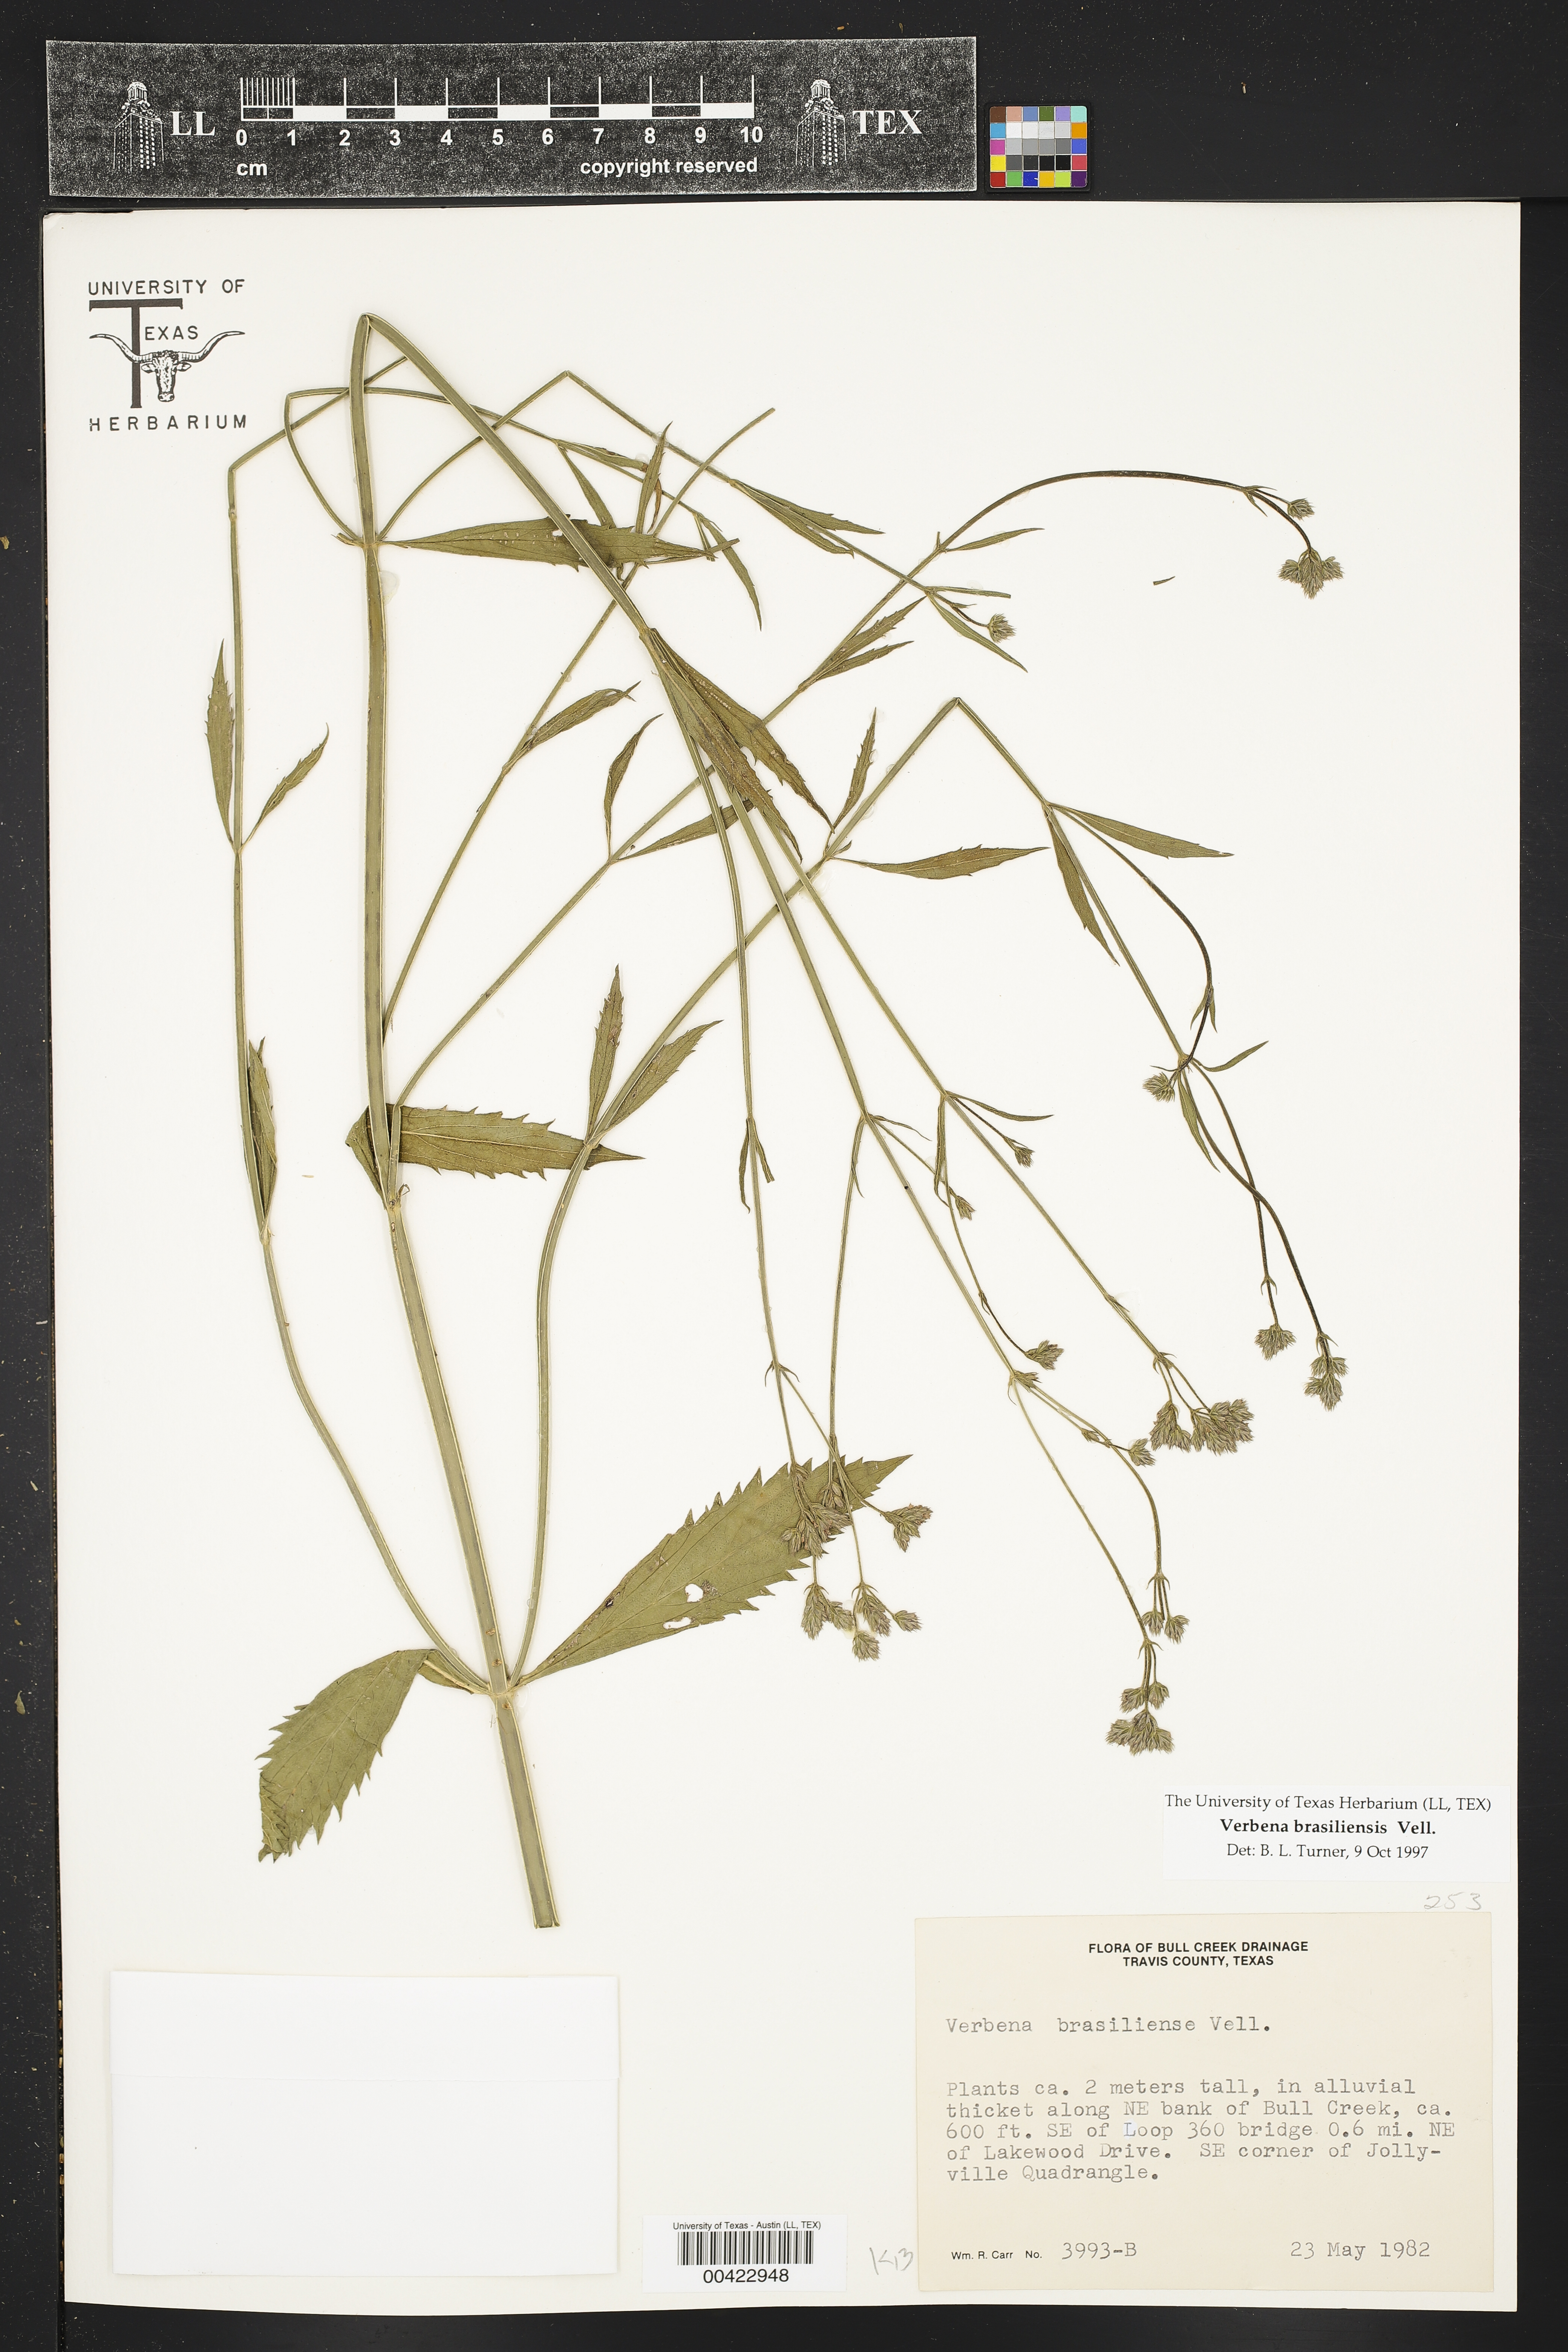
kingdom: Plantae
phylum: Tracheophyta
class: Magnoliopsida
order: Lamiales
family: Verbenaceae
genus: Verbena
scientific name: Verbena brasiliensis
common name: Brazilian vervain
